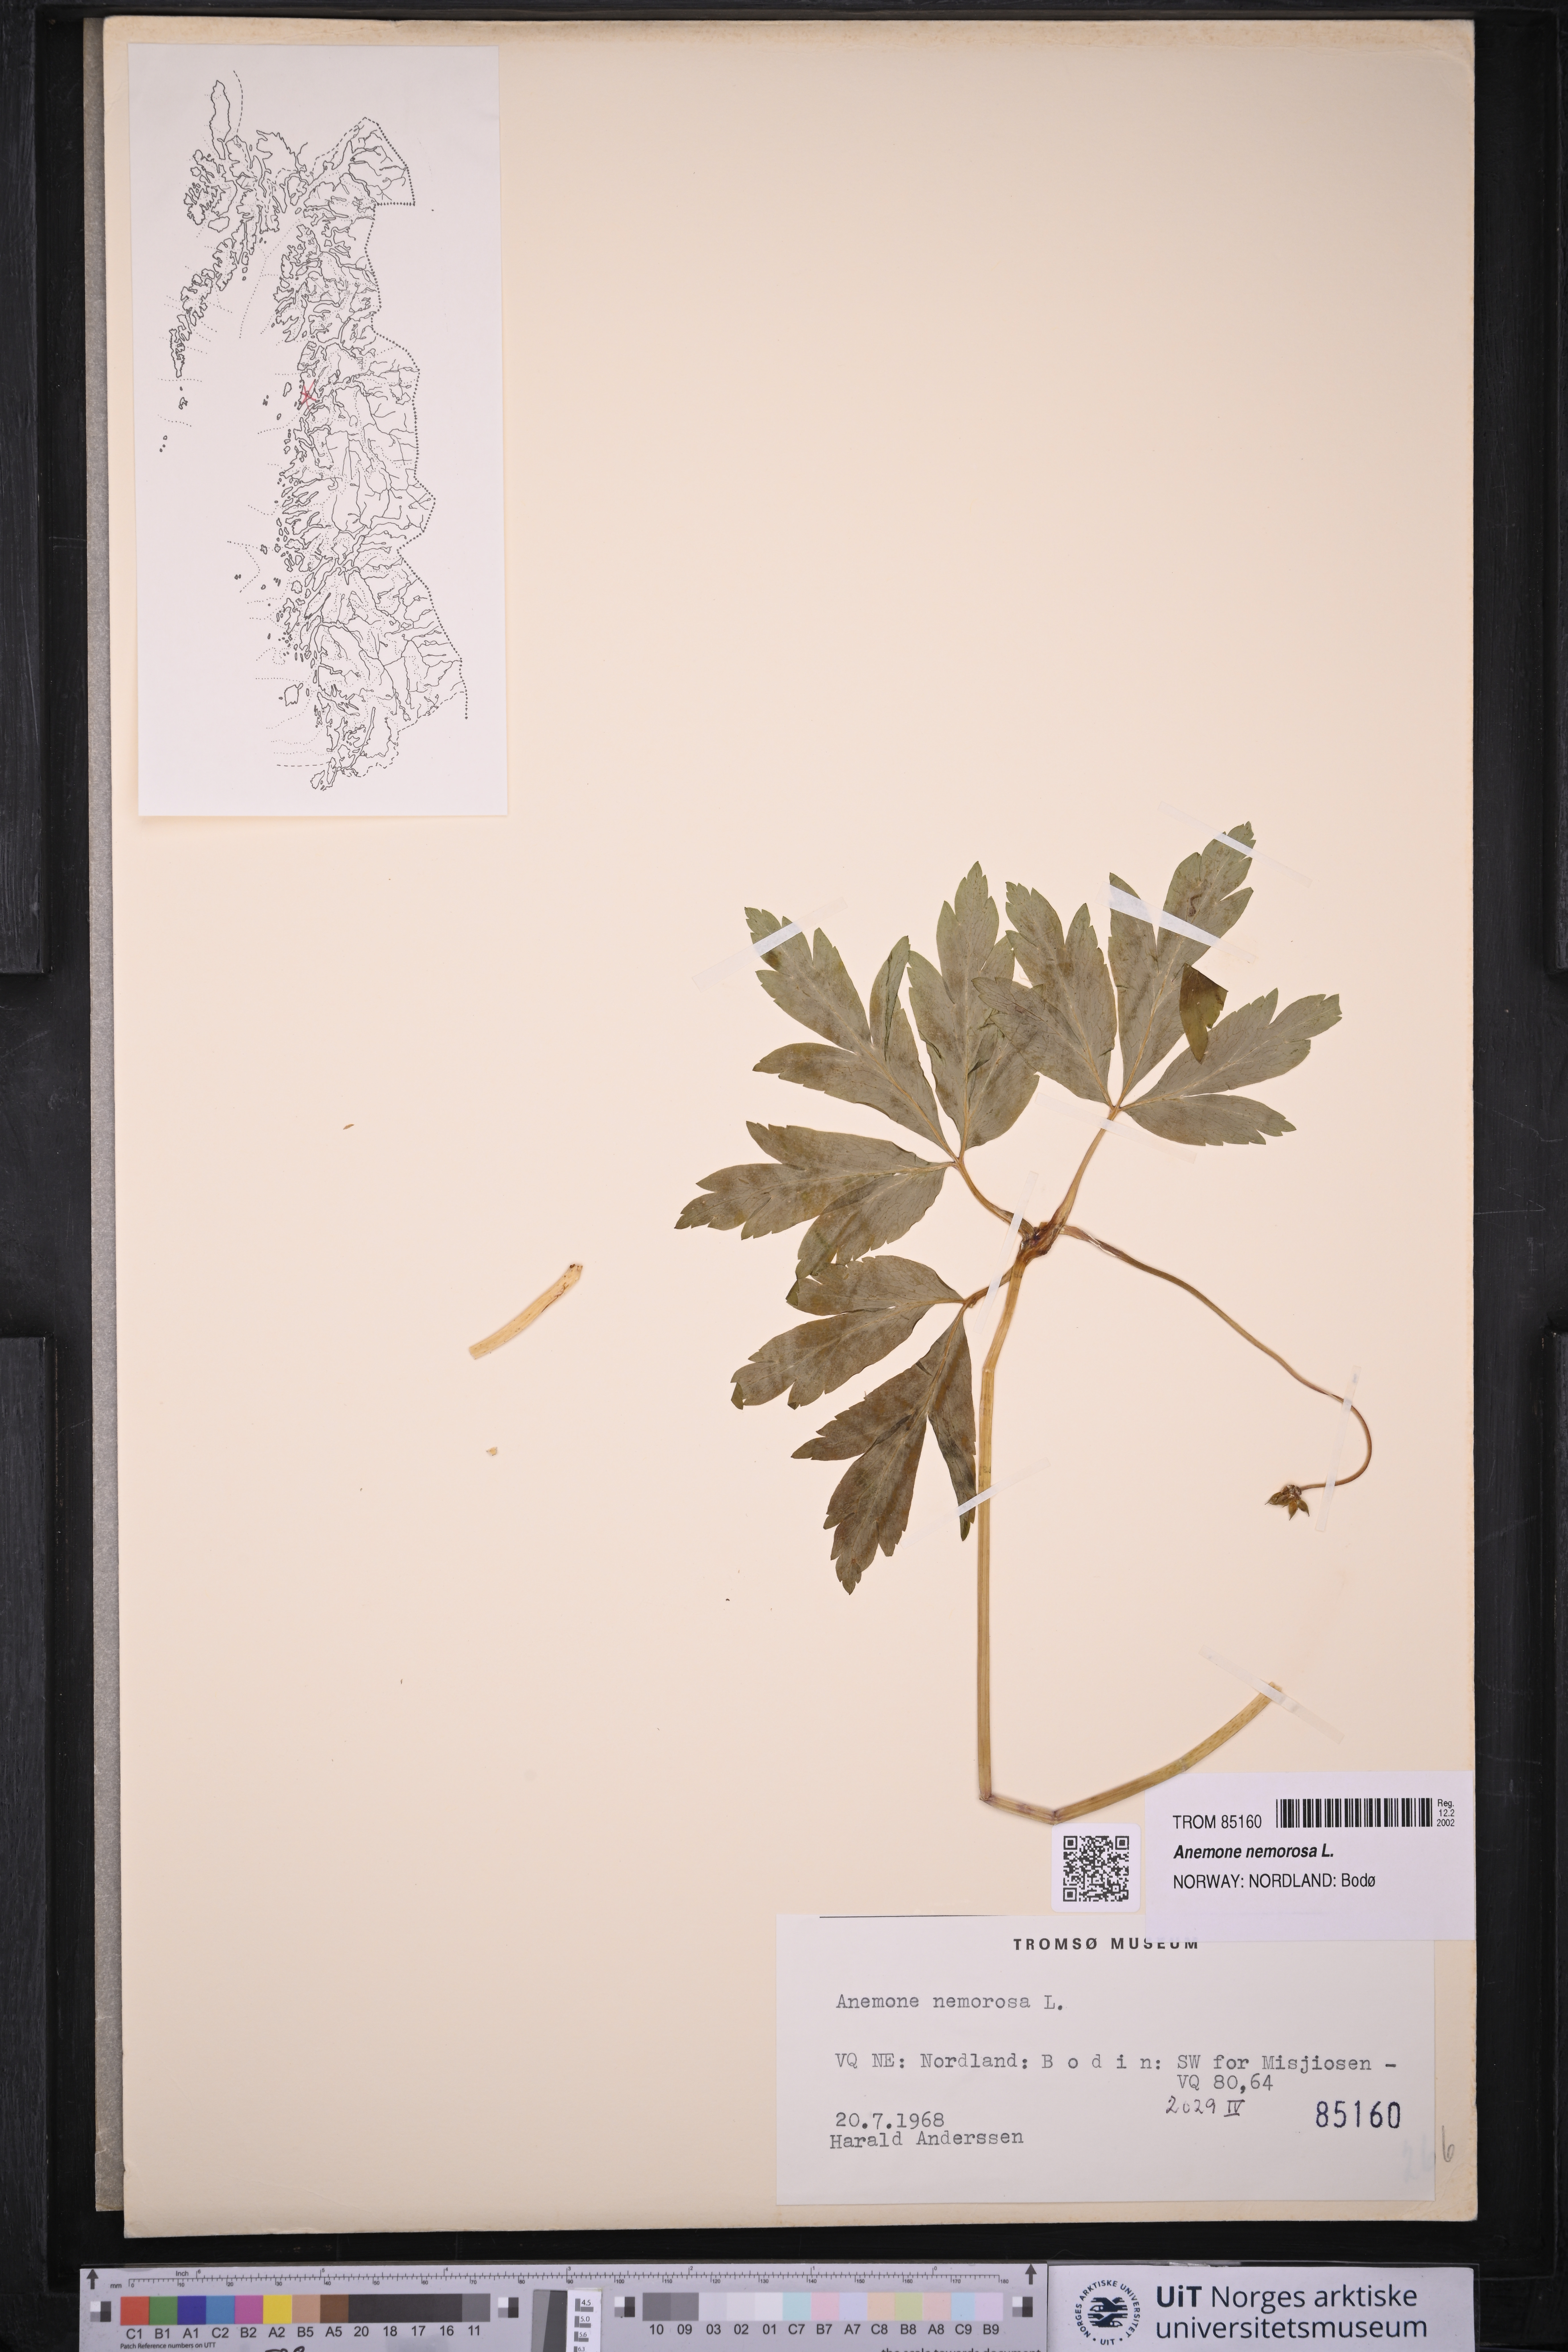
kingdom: Plantae
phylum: Tracheophyta
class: Magnoliopsida
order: Ranunculales
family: Ranunculaceae
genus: Anemone
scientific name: Anemone nemorosa
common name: Wood anemone
